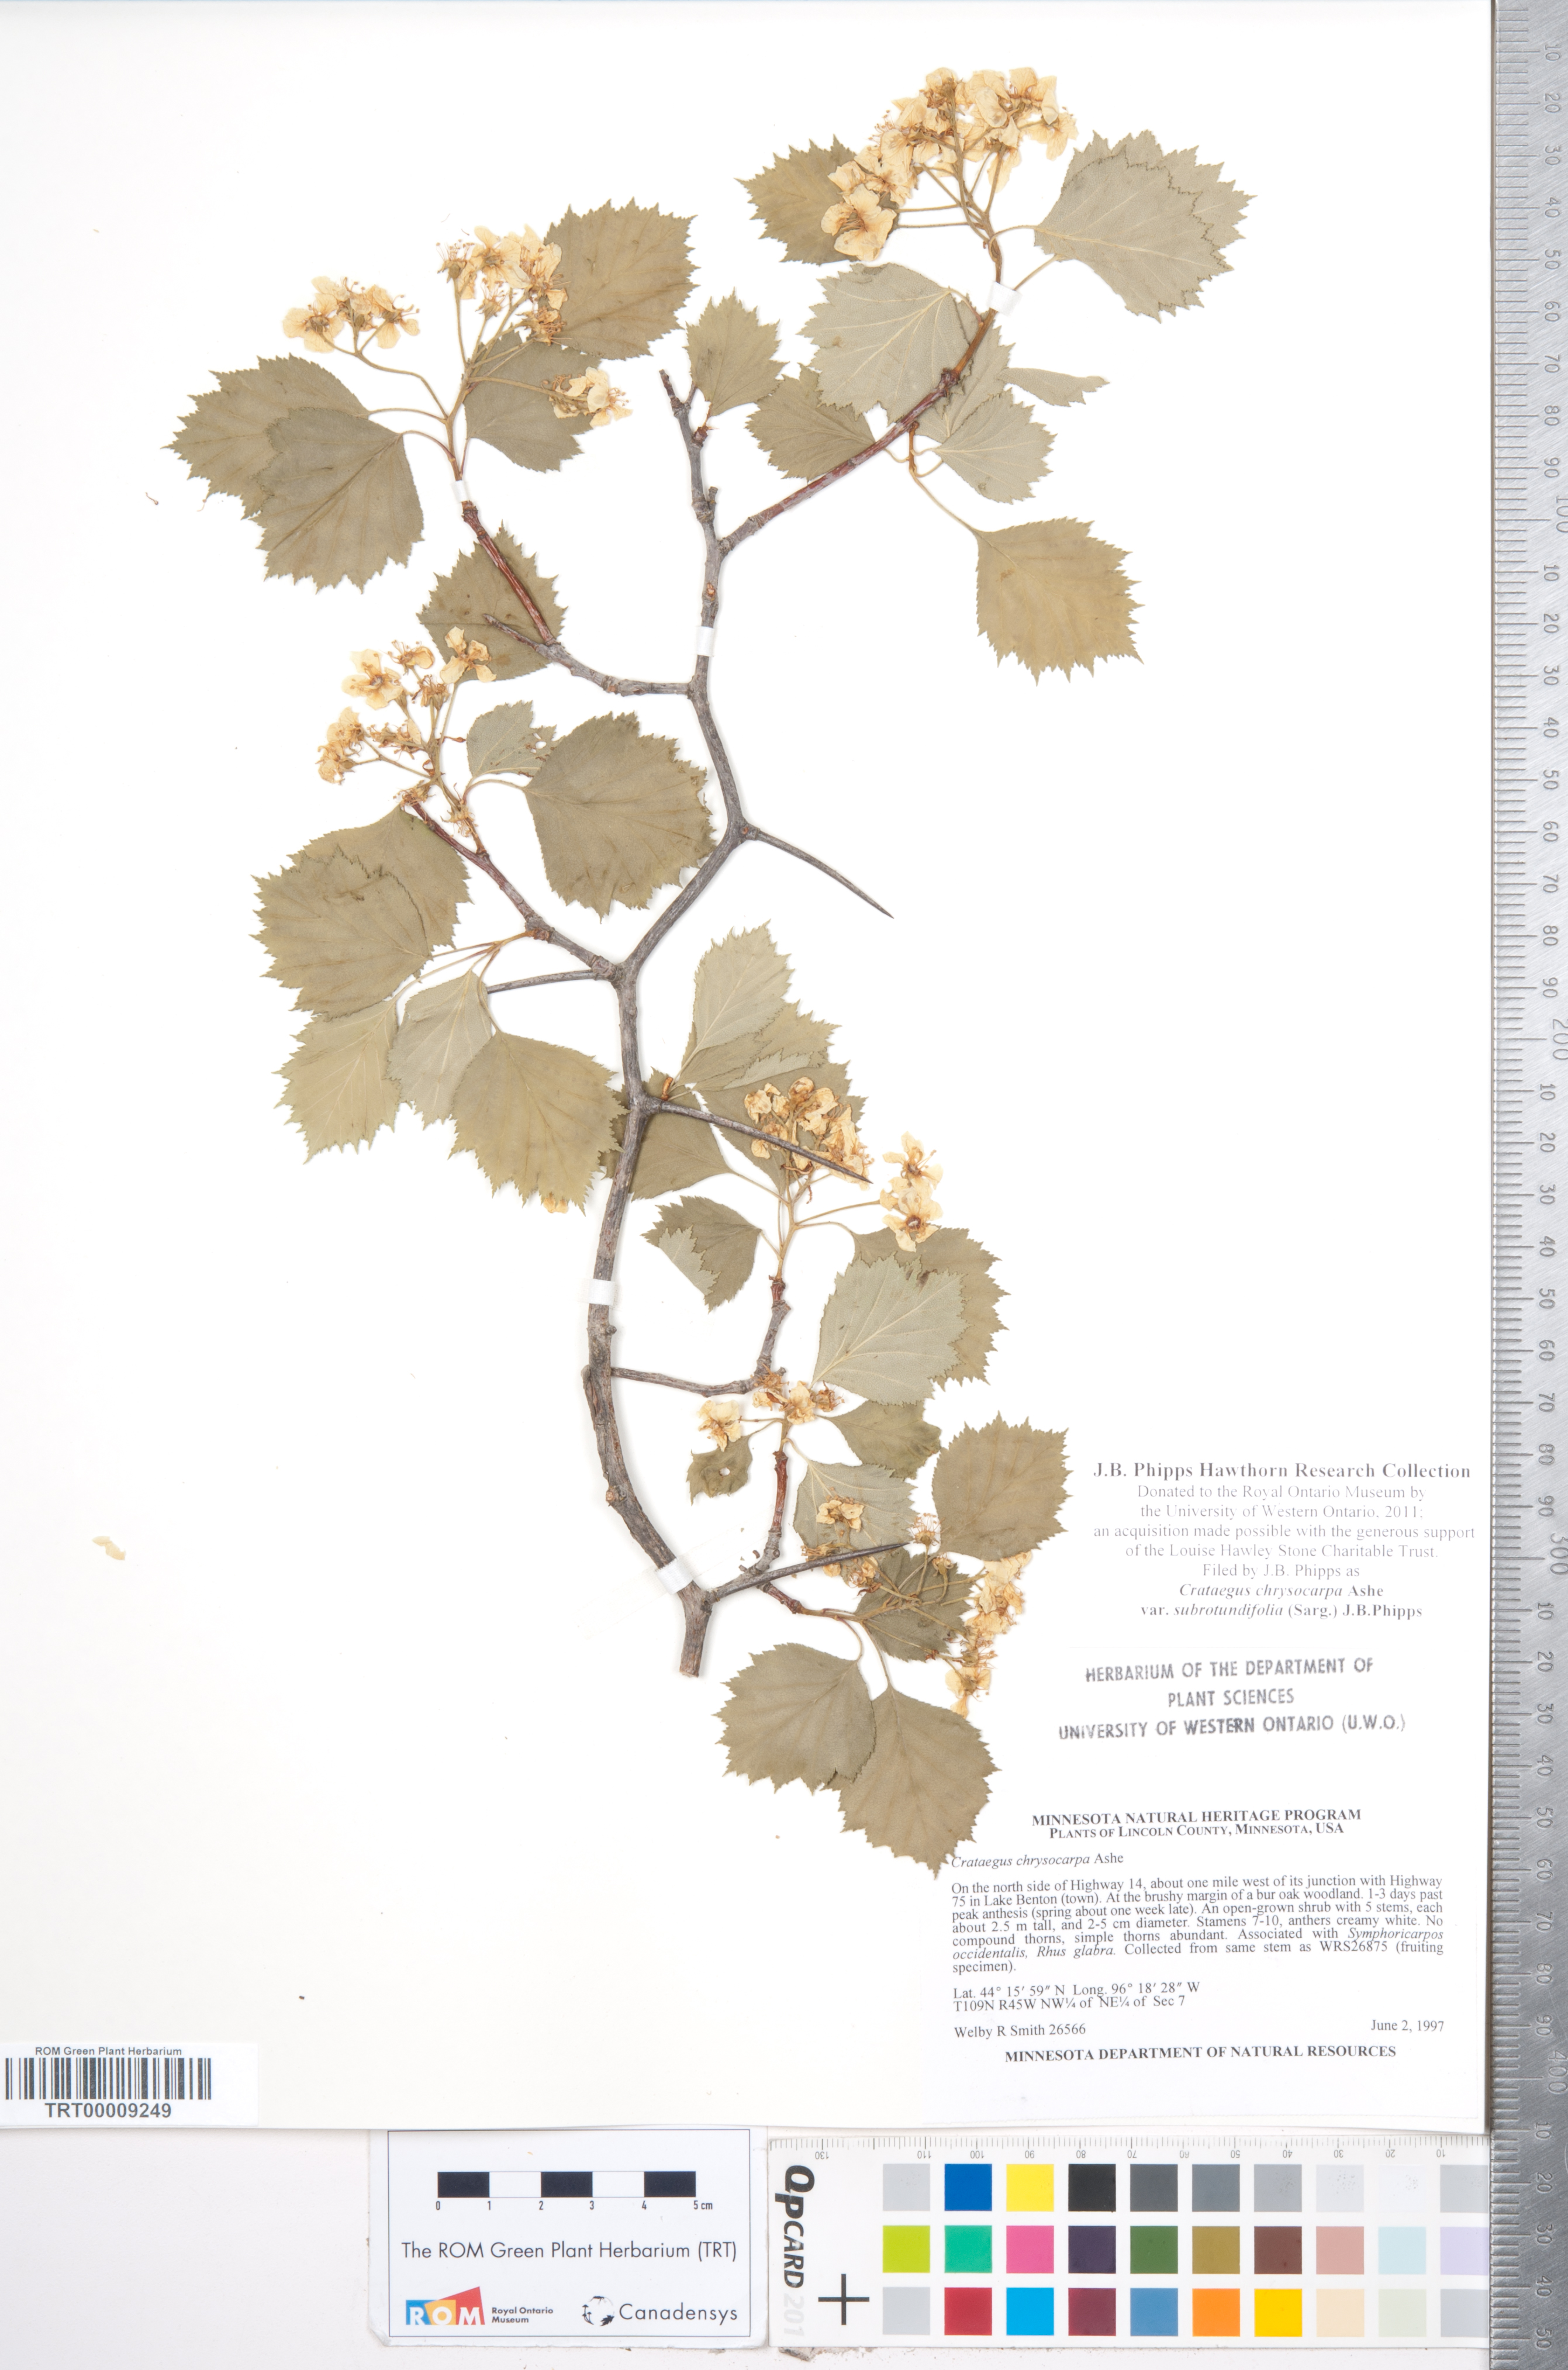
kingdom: Plantae
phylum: Tracheophyta
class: Magnoliopsida
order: Rosales
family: Rosaceae
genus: Crataegus
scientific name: Crataegus chrysocarpa
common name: Fire-berry hawthorn
